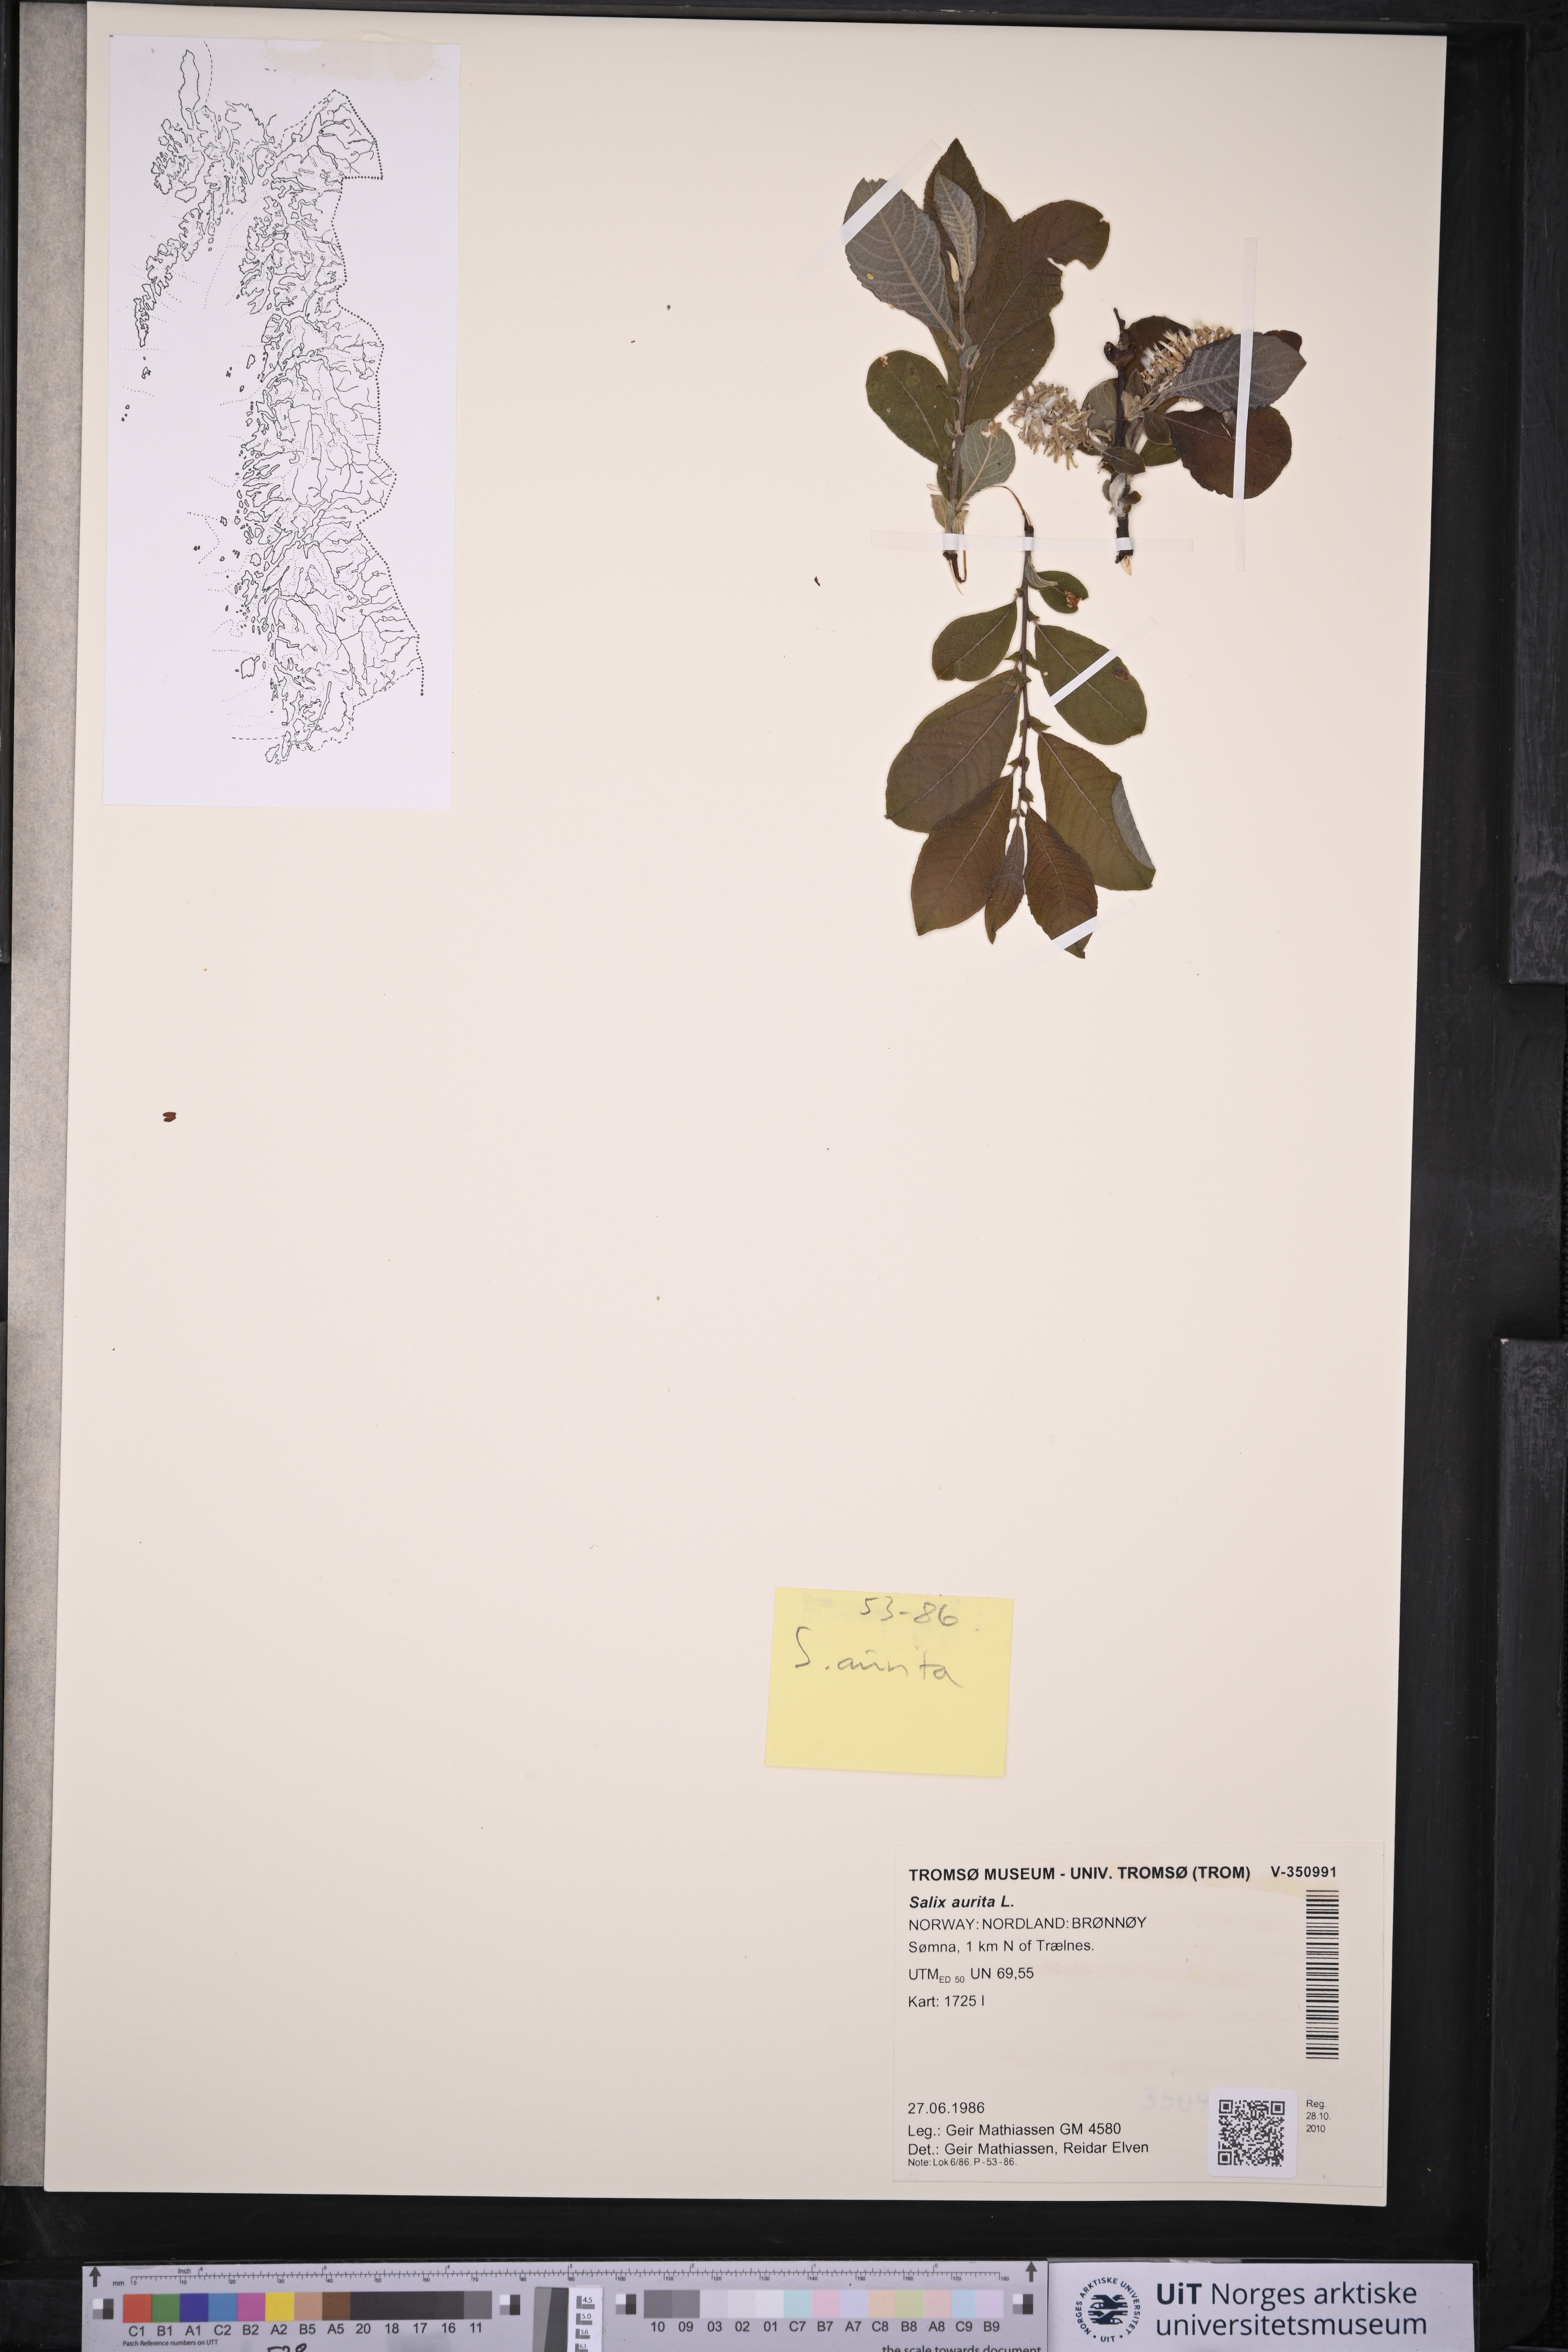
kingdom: Plantae
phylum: Tracheophyta
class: Magnoliopsida
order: Malpighiales
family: Salicaceae
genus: Salix
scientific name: Salix aurita
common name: Eared willow
